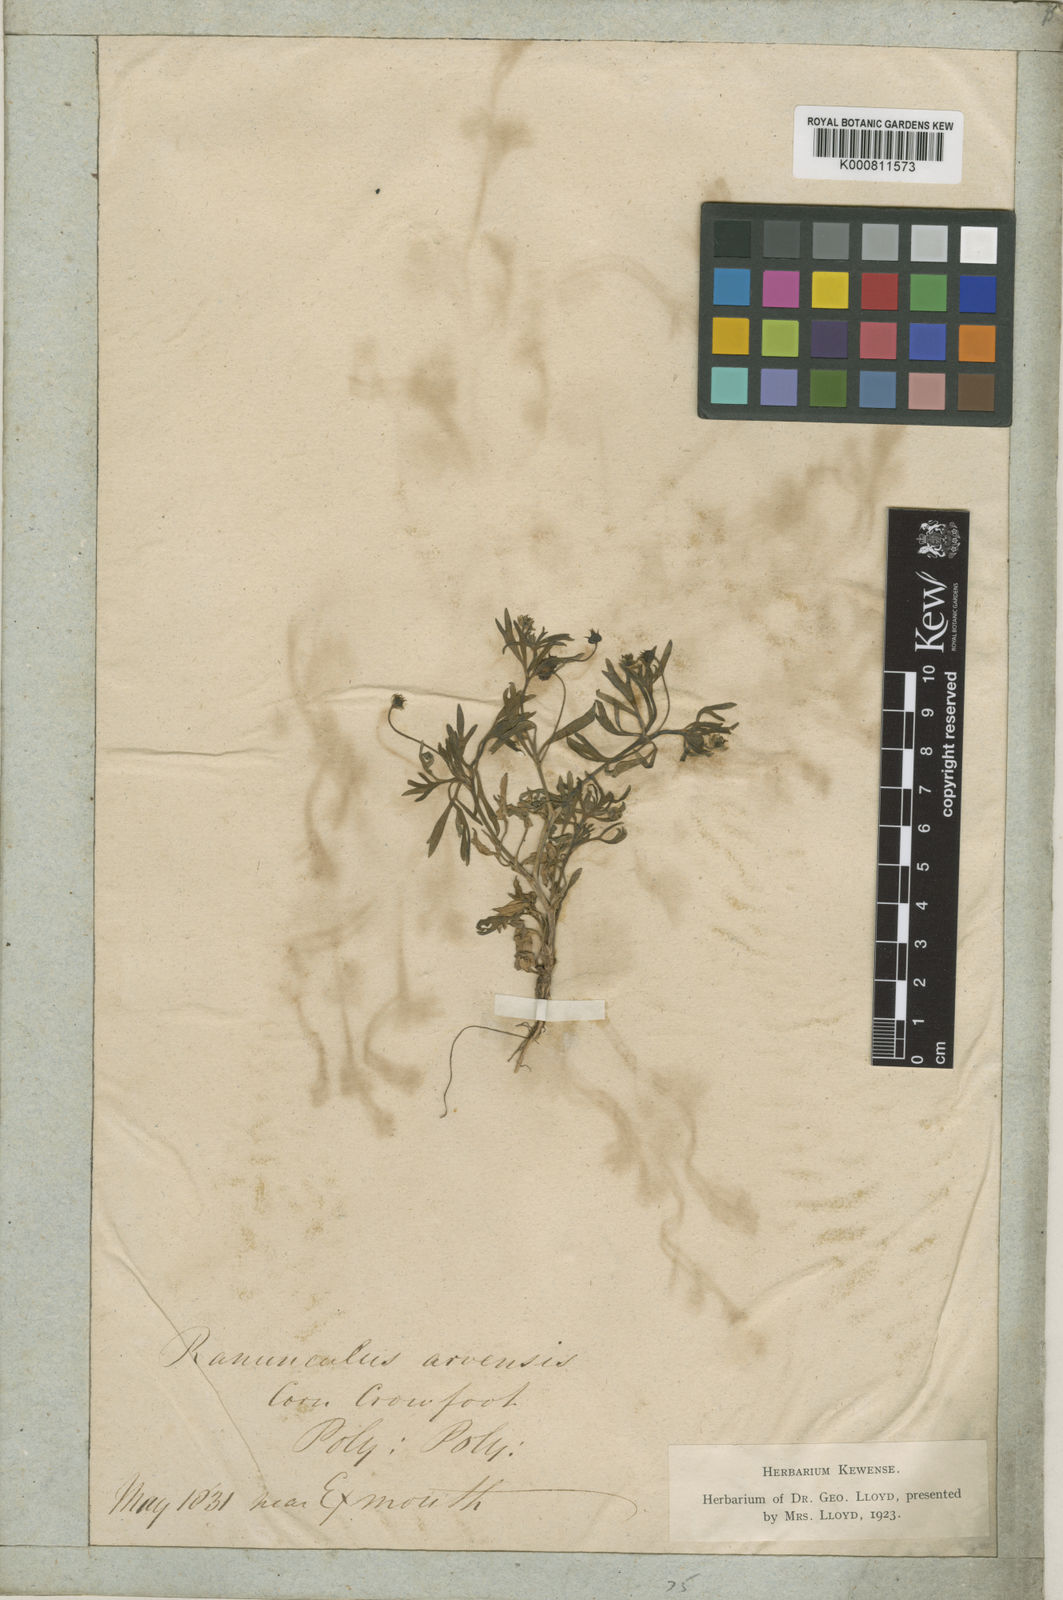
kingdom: Plantae
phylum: Tracheophyta
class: Magnoliopsida
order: Ranunculales
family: Ranunculaceae
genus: Ranunculus
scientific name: Ranunculus arvensis
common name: Corn buttercup
